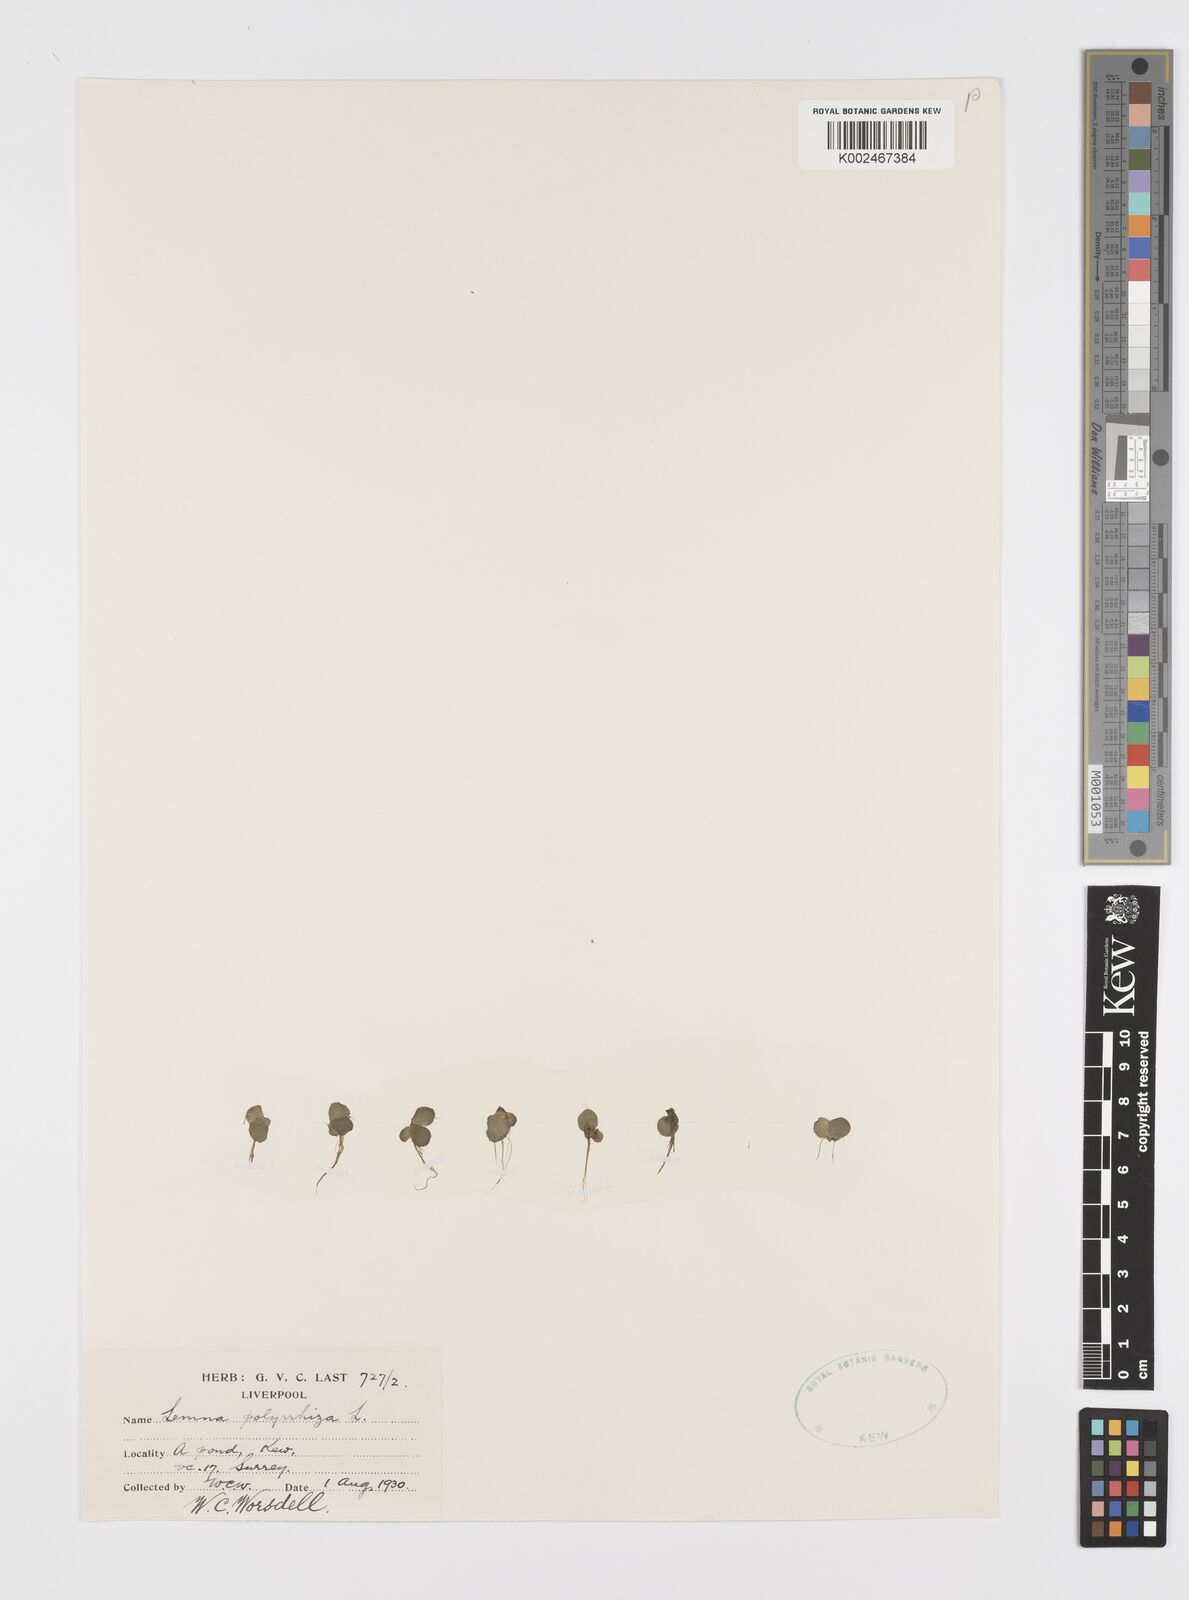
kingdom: Plantae
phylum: Tracheophyta
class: Liliopsida
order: Alismatales
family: Araceae
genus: Spirodela
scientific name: Spirodela polyrhiza
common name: Great duckweed
